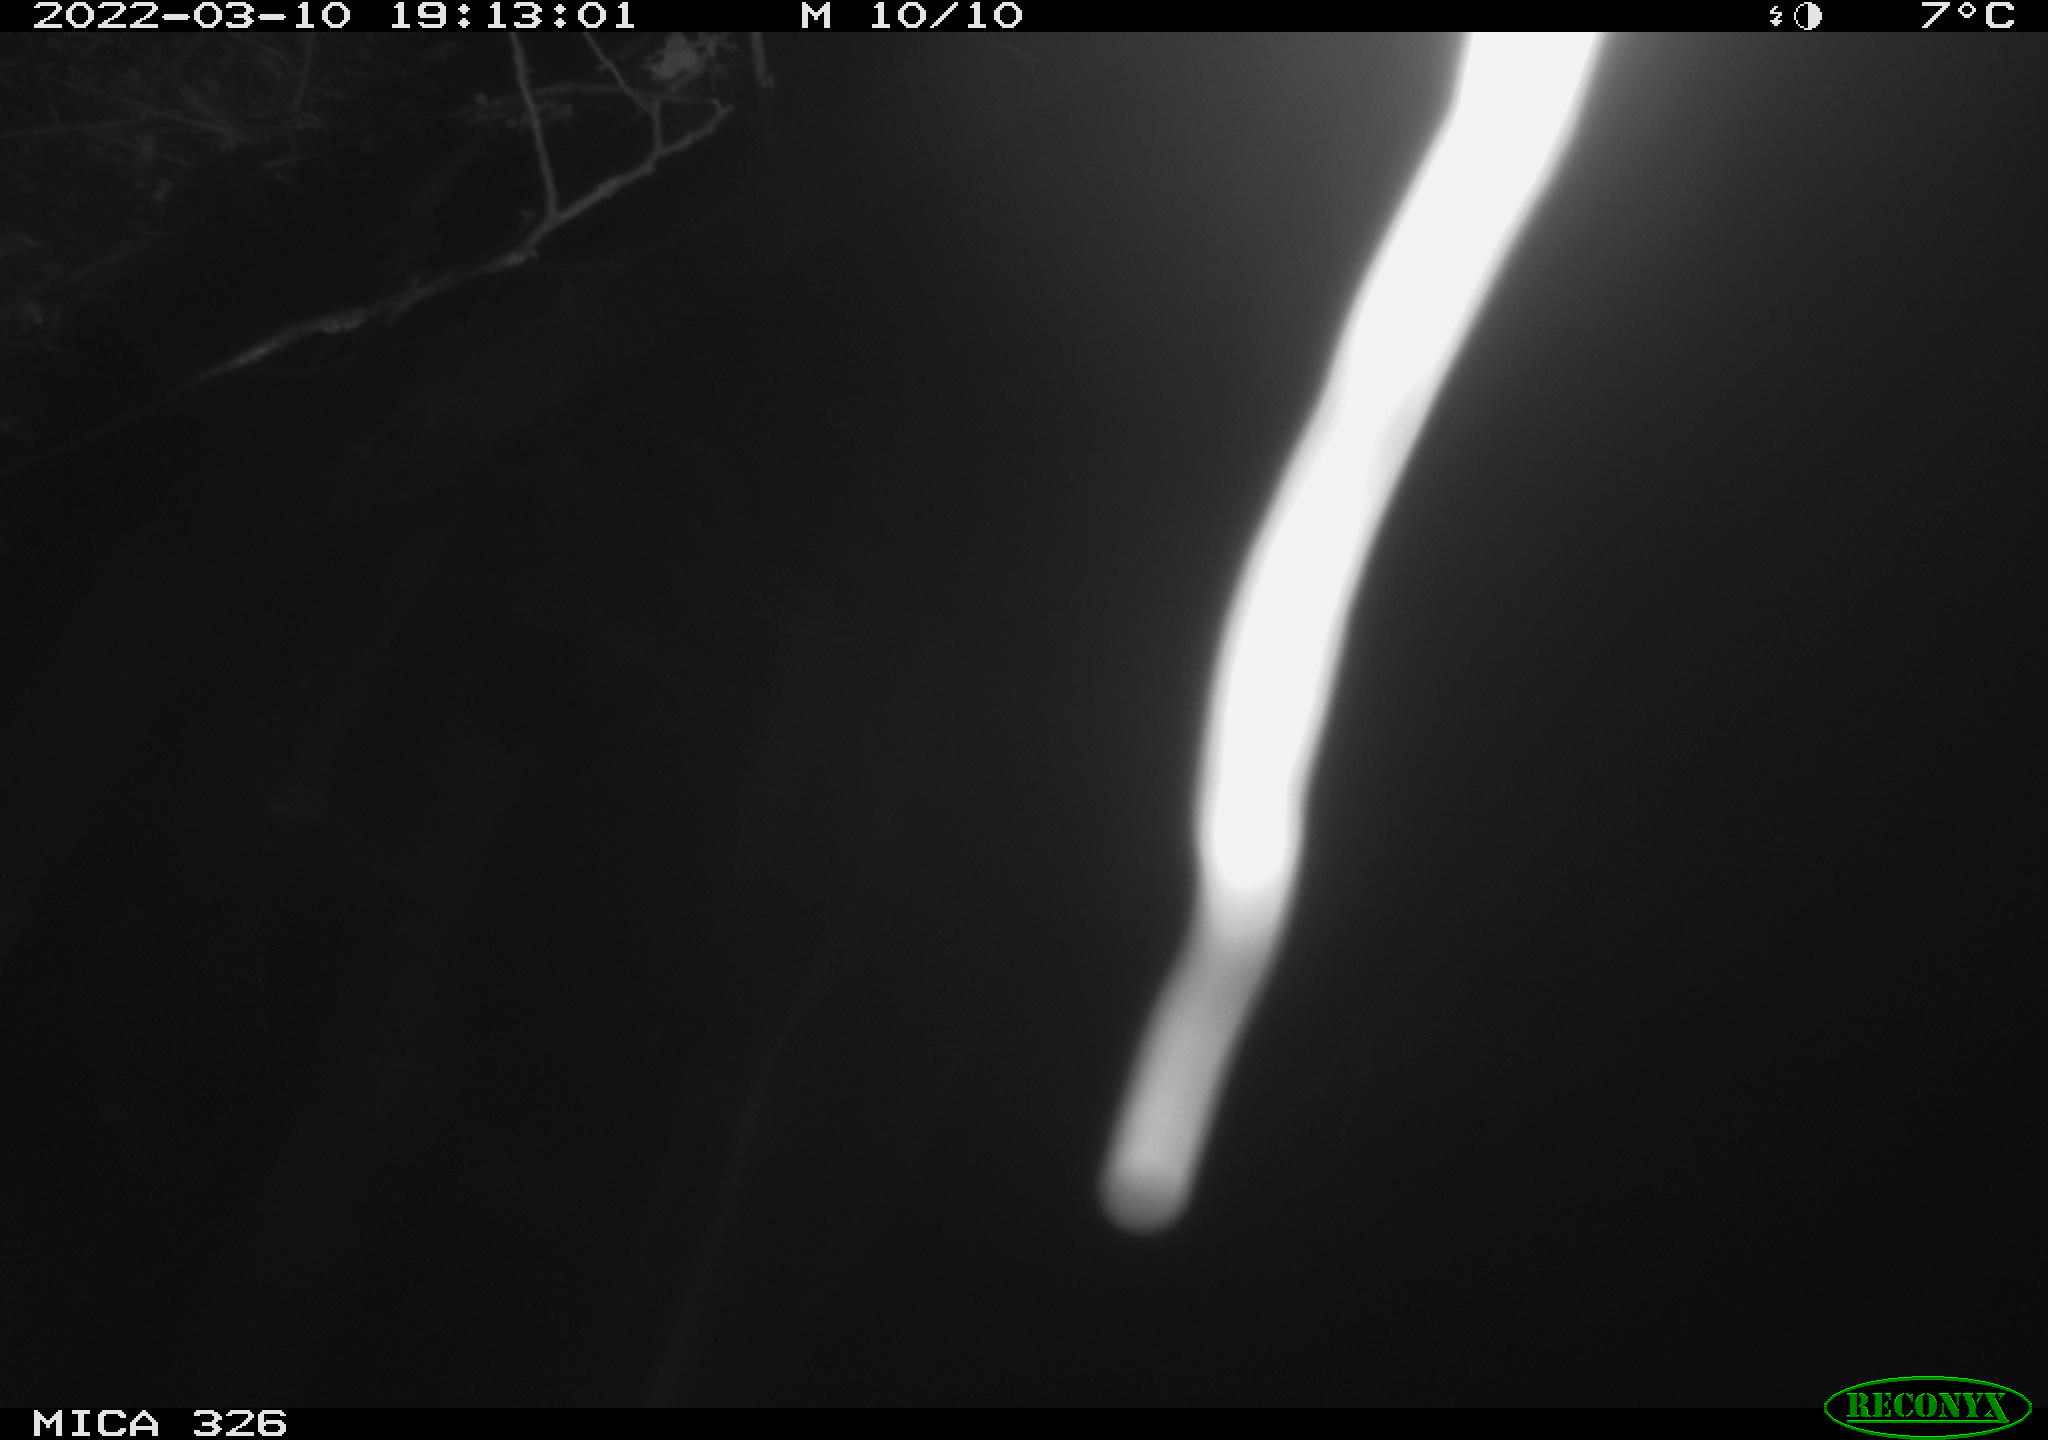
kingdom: Animalia
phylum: Chordata
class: Mammalia
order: Rodentia
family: Cricetidae
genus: Ondatra
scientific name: Ondatra zibethicus
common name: Muskrat
